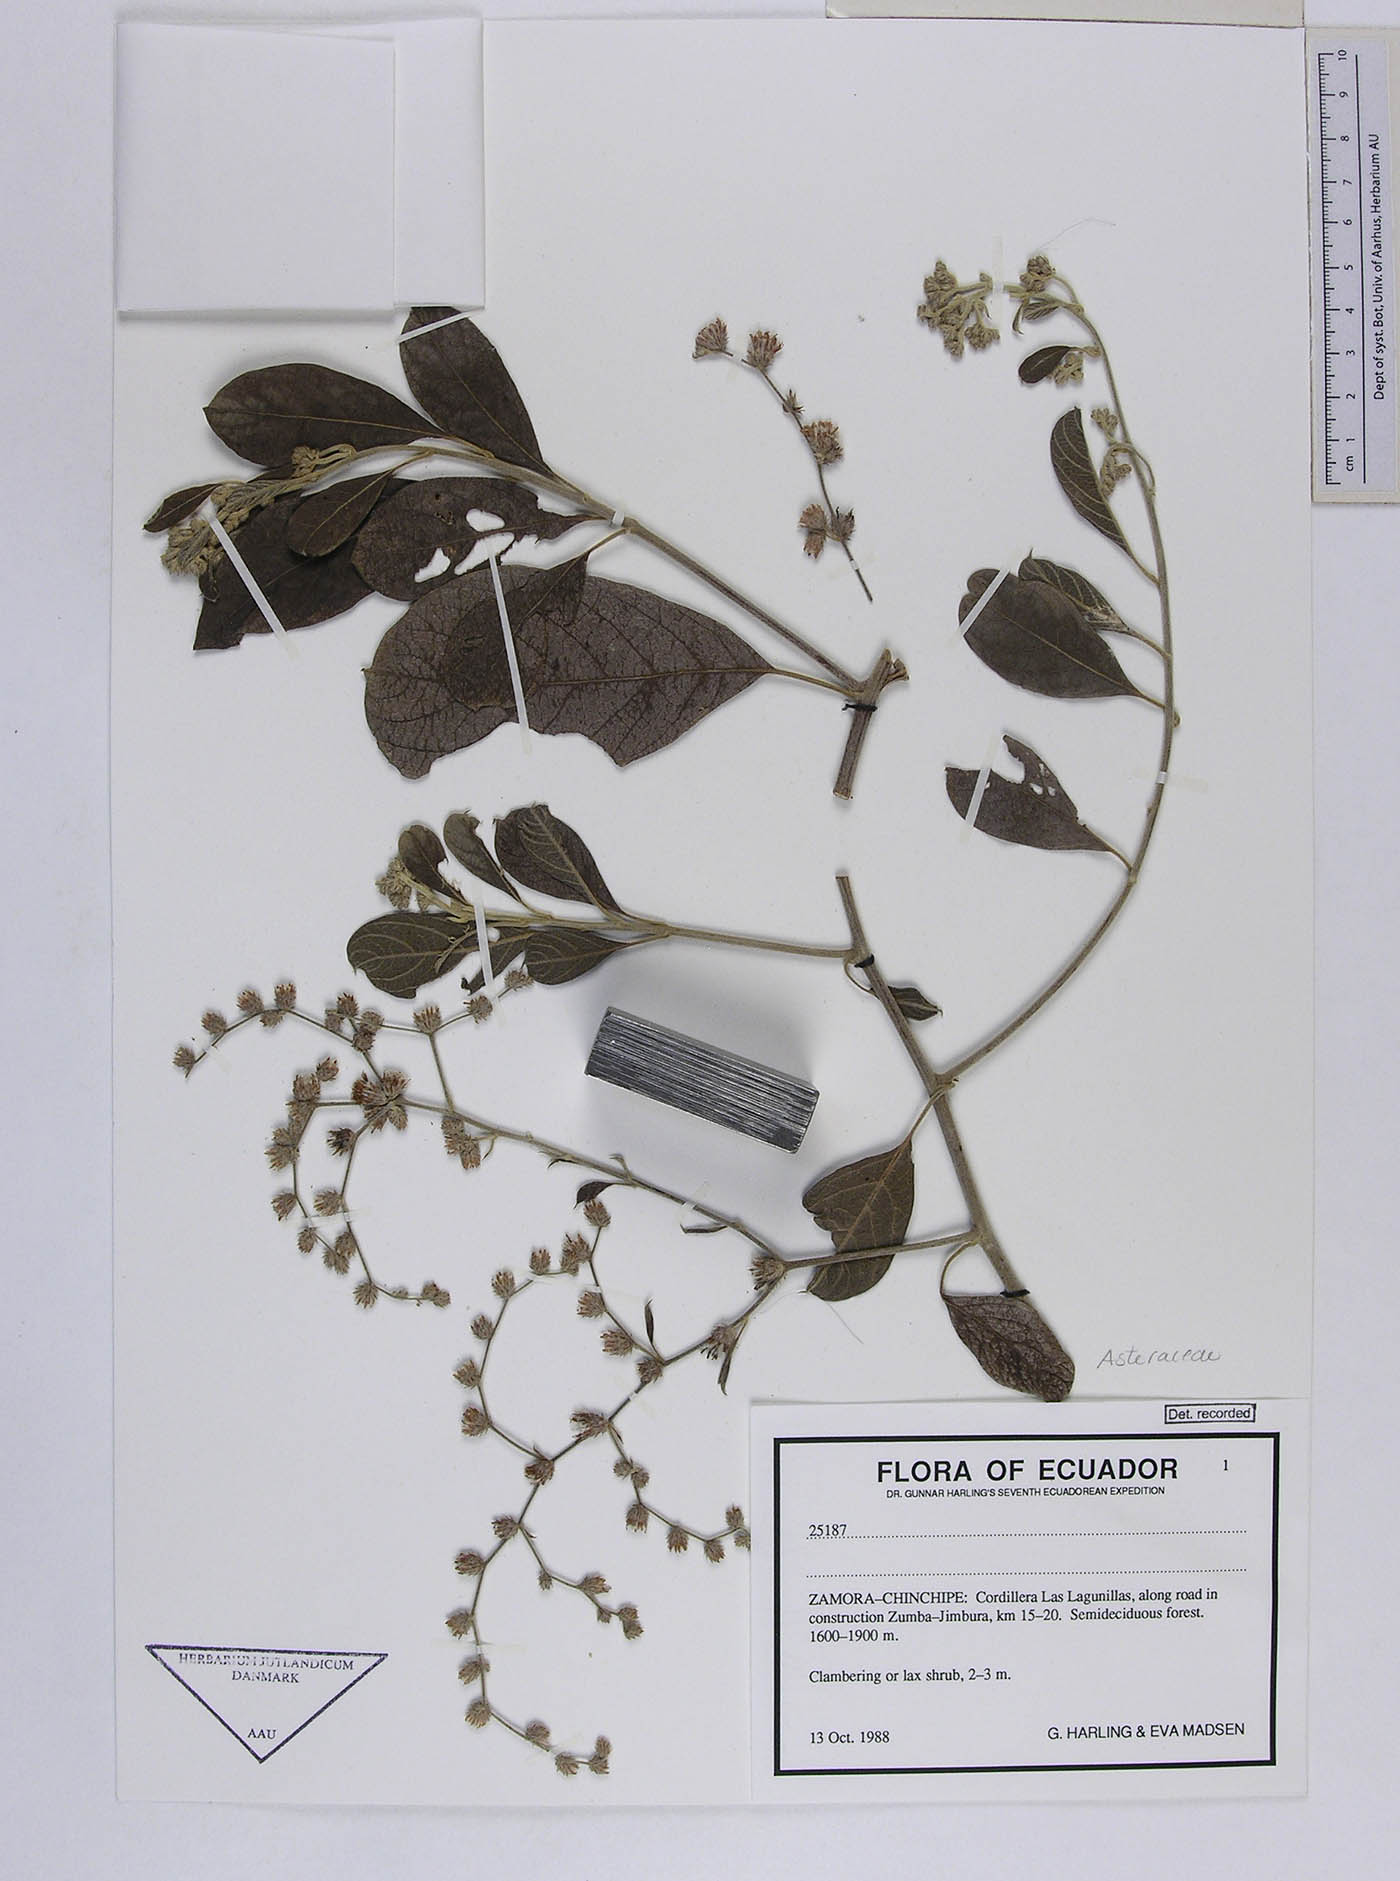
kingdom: Plantae
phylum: Tracheophyta
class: Magnoliopsida
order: Asterales
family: Asteraceae
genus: Lepidaploa
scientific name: Lepidaploa canescens
